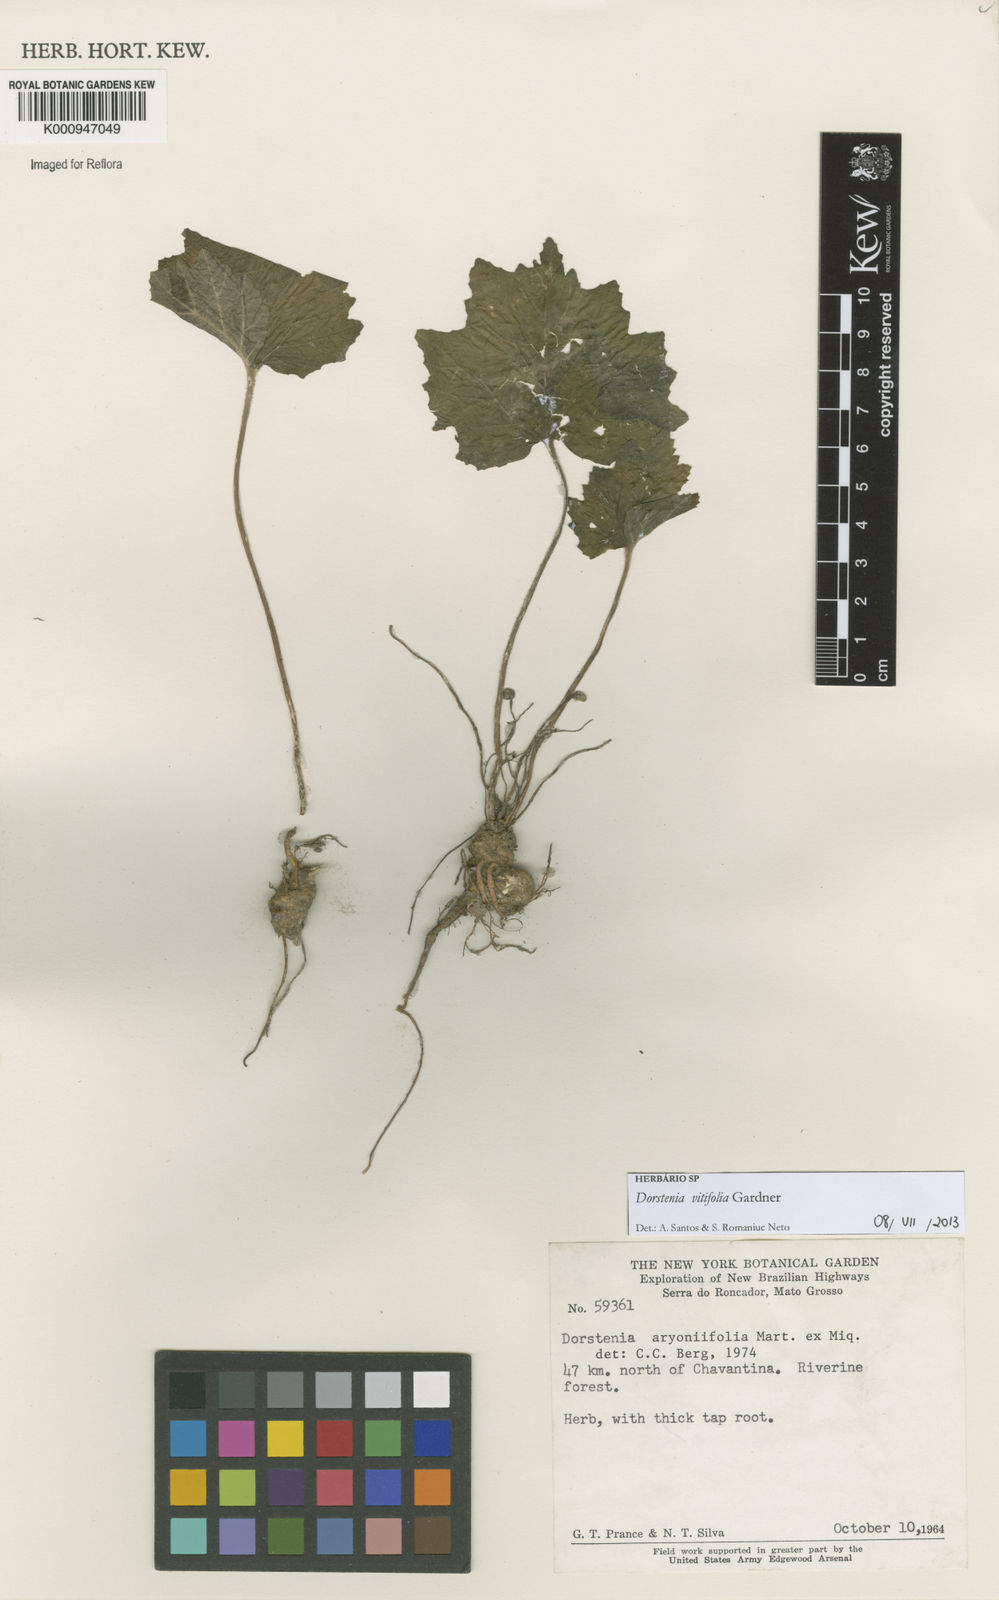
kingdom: Plantae
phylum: Tracheophyta
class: Magnoliopsida
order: Rosales
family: Moraceae
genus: Dorstenia
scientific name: Dorstenia cayapia
